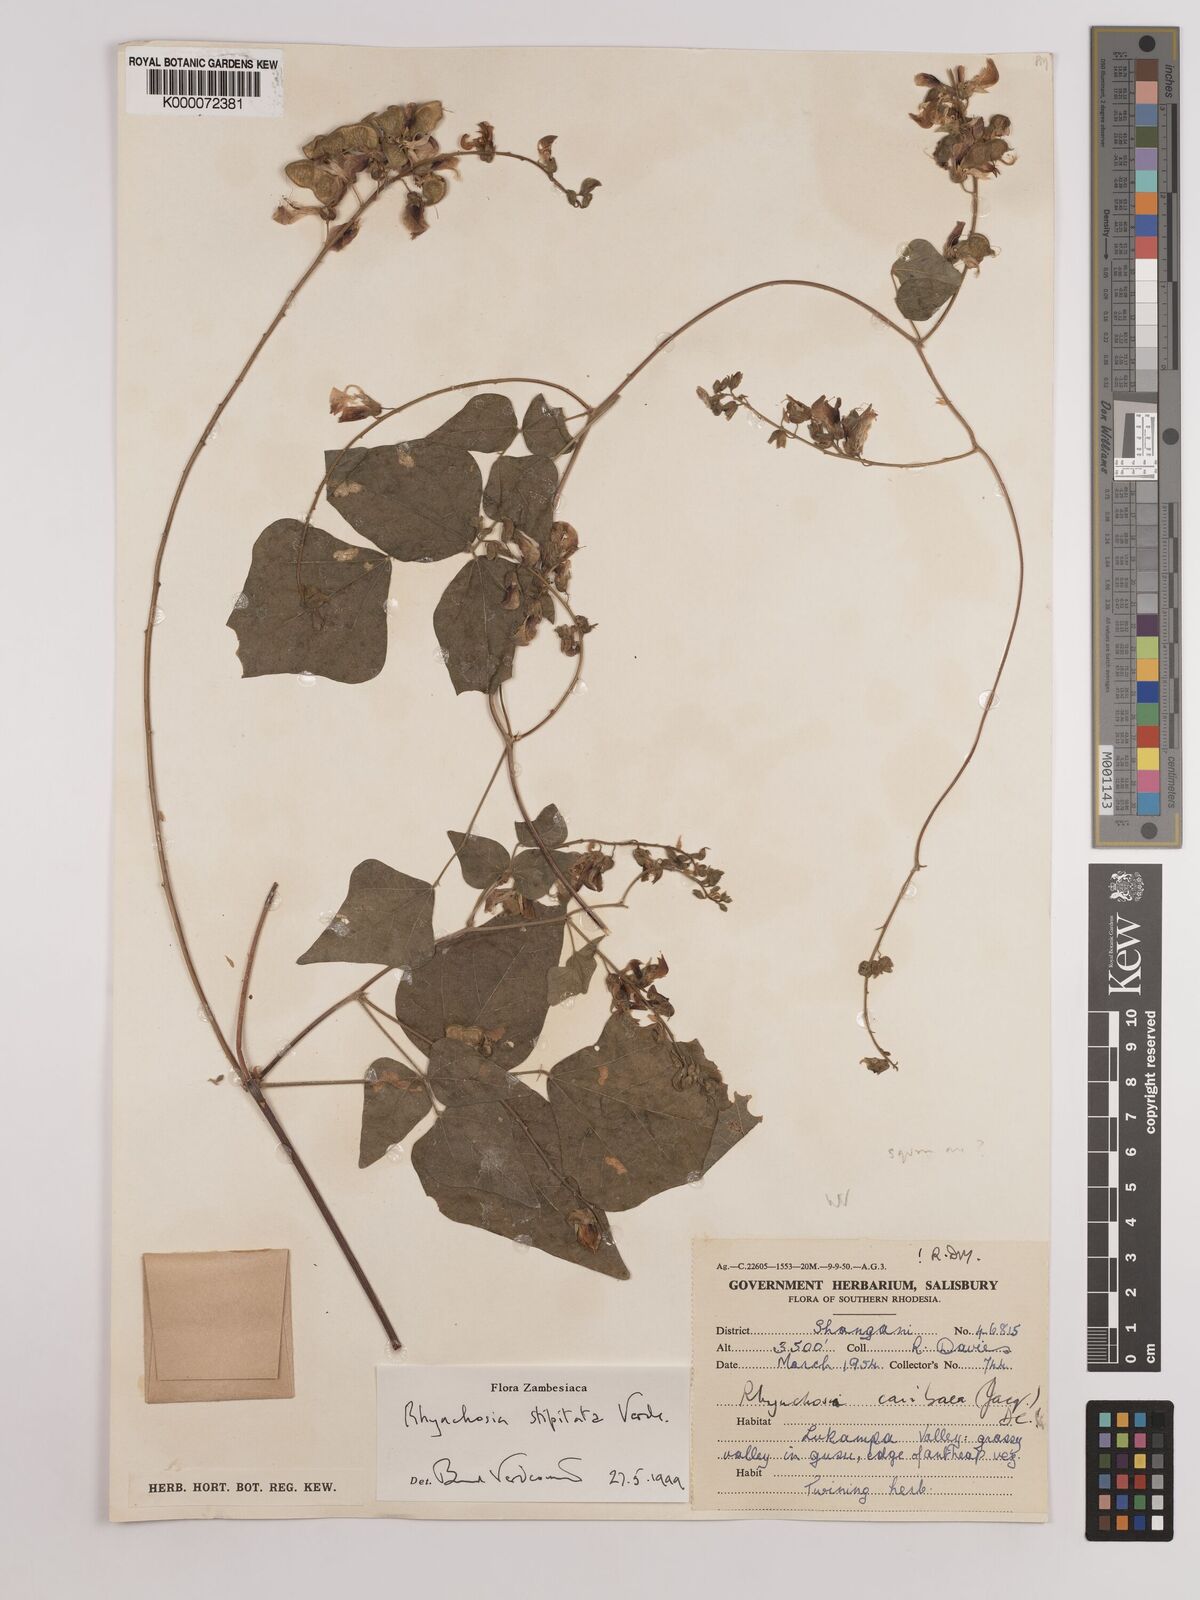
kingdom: Plantae
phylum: Tracheophyta
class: Magnoliopsida
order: Fabales
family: Fabaceae
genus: Rhynchosia
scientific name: Rhynchosia stipitata
